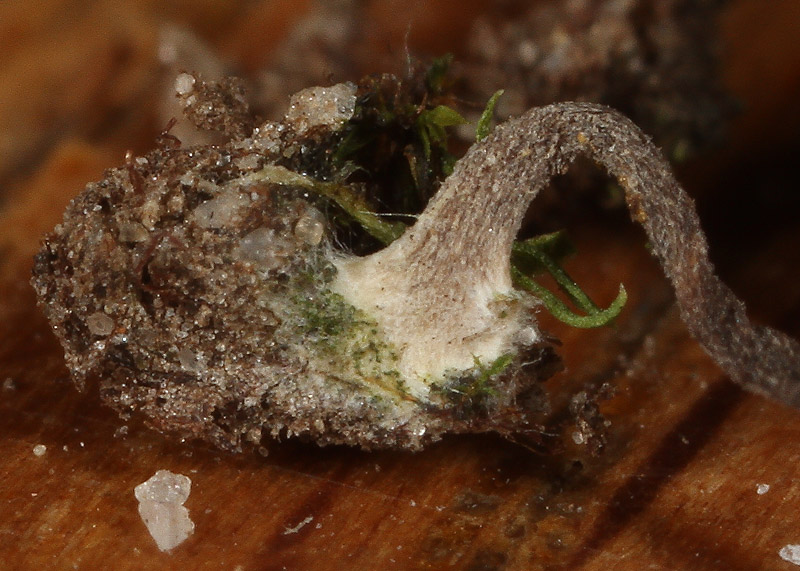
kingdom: Fungi
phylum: Basidiomycota
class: Agaricomycetes
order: Agaricales
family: Hygrophoraceae
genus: Lichenomphalia
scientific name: Lichenomphalia velutina
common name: dunet lavhat
